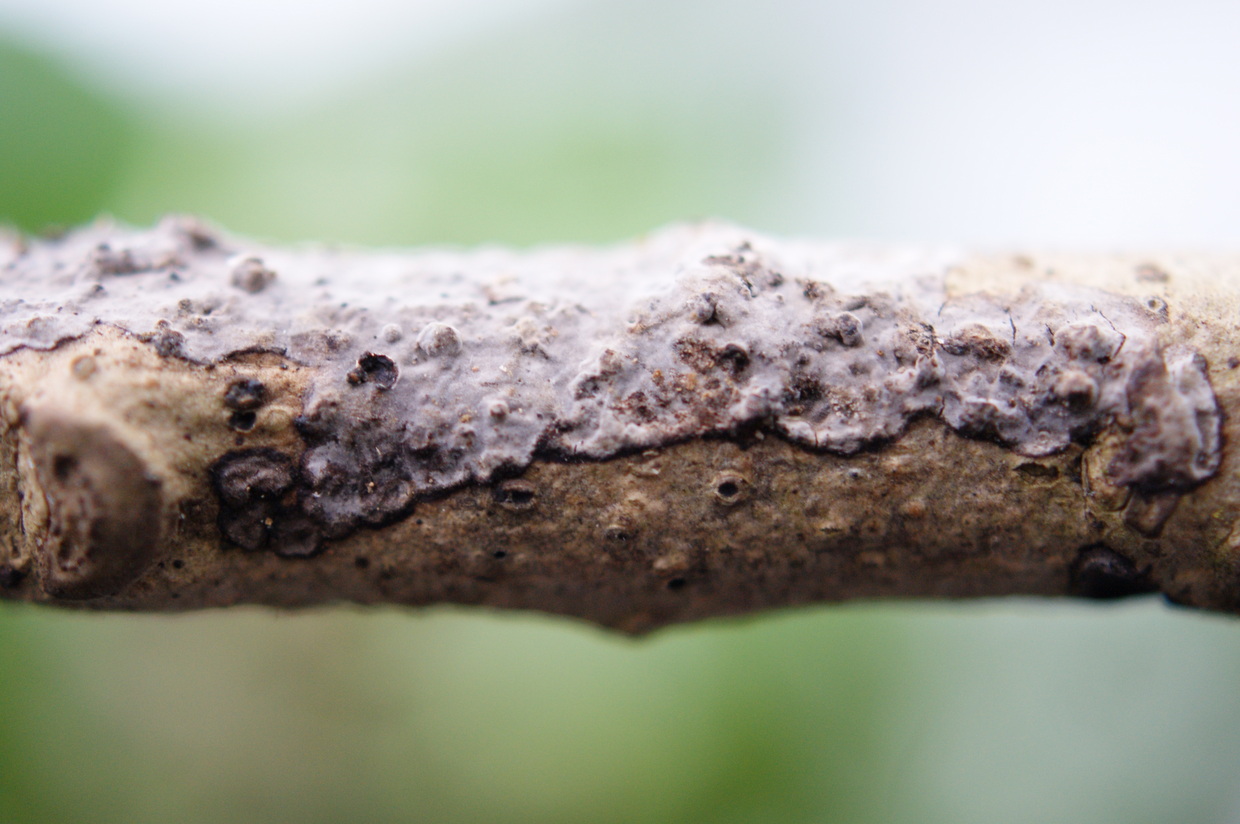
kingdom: Fungi
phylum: Basidiomycota
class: Agaricomycetes
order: Russulales
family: Peniophoraceae
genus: Peniophora
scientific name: Peniophora limitata
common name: mørkrandet voksskind
